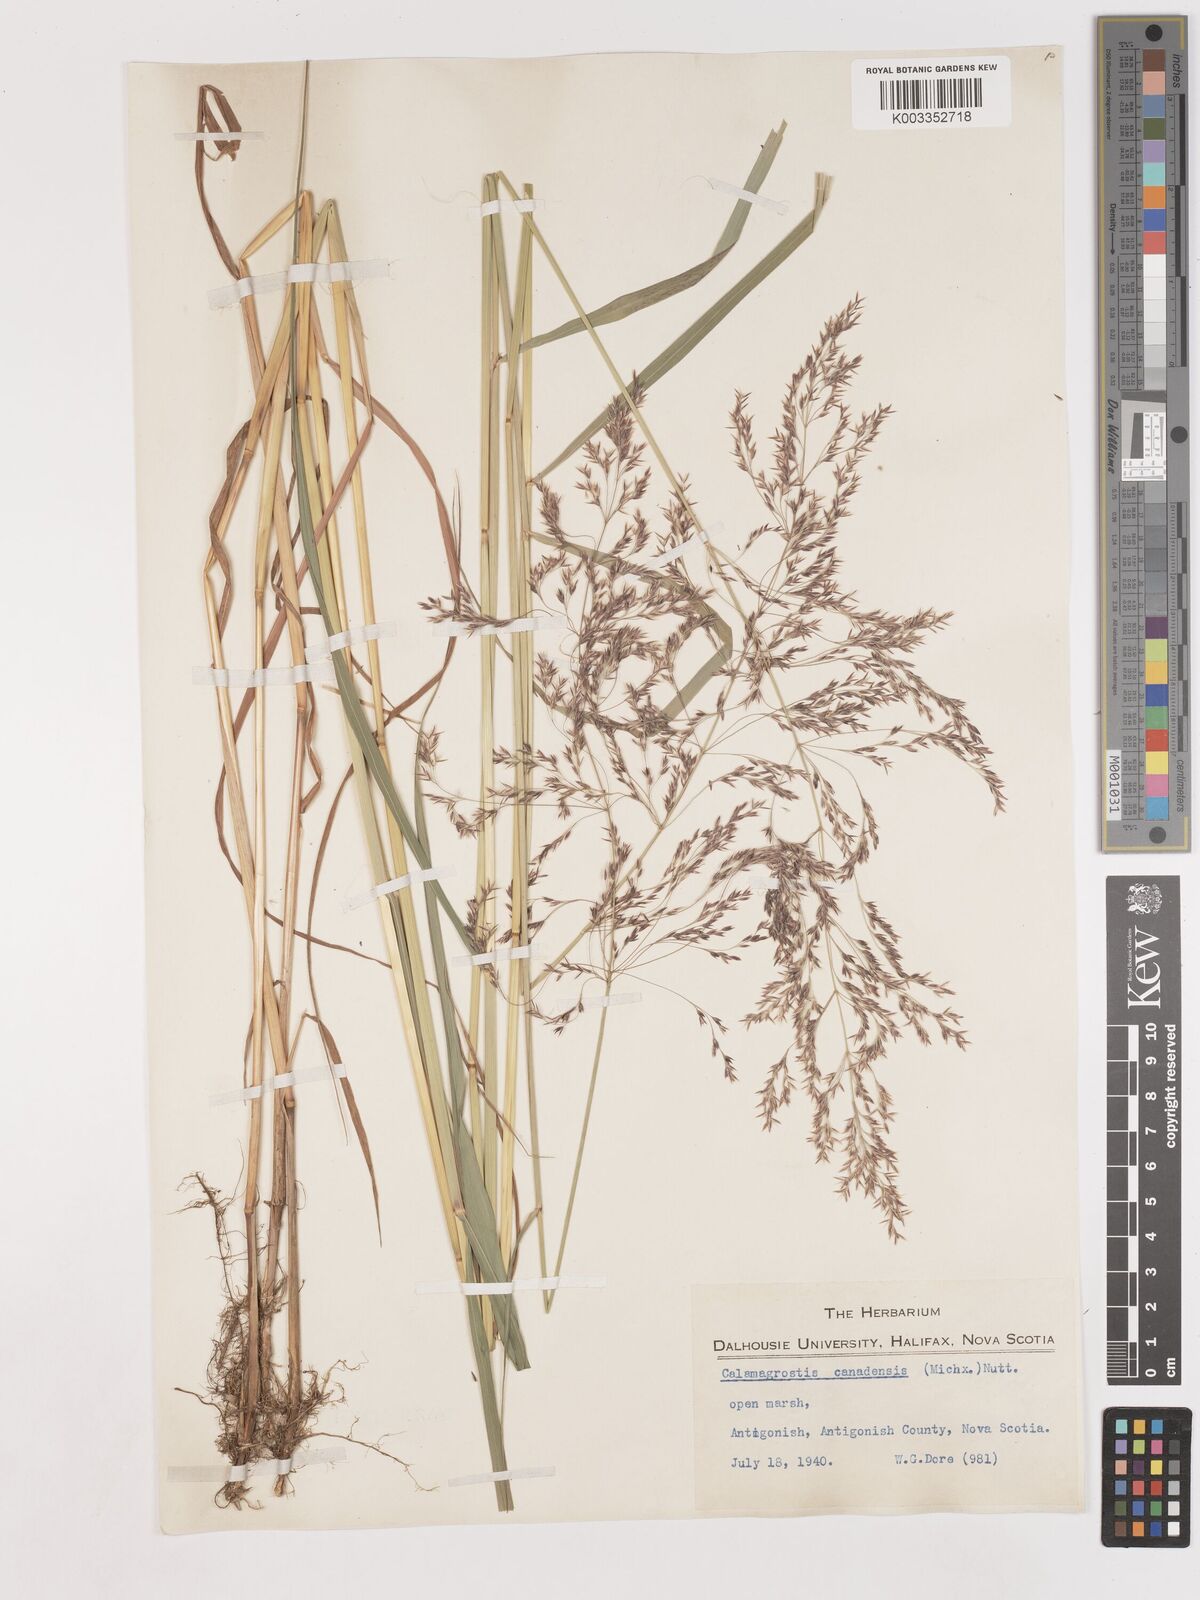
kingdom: Plantae
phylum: Tracheophyta
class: Liliopsida
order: Poales
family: Poaceae
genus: Calamagrostis
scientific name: Calamagrostis canadensis
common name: Canada bluejoint
